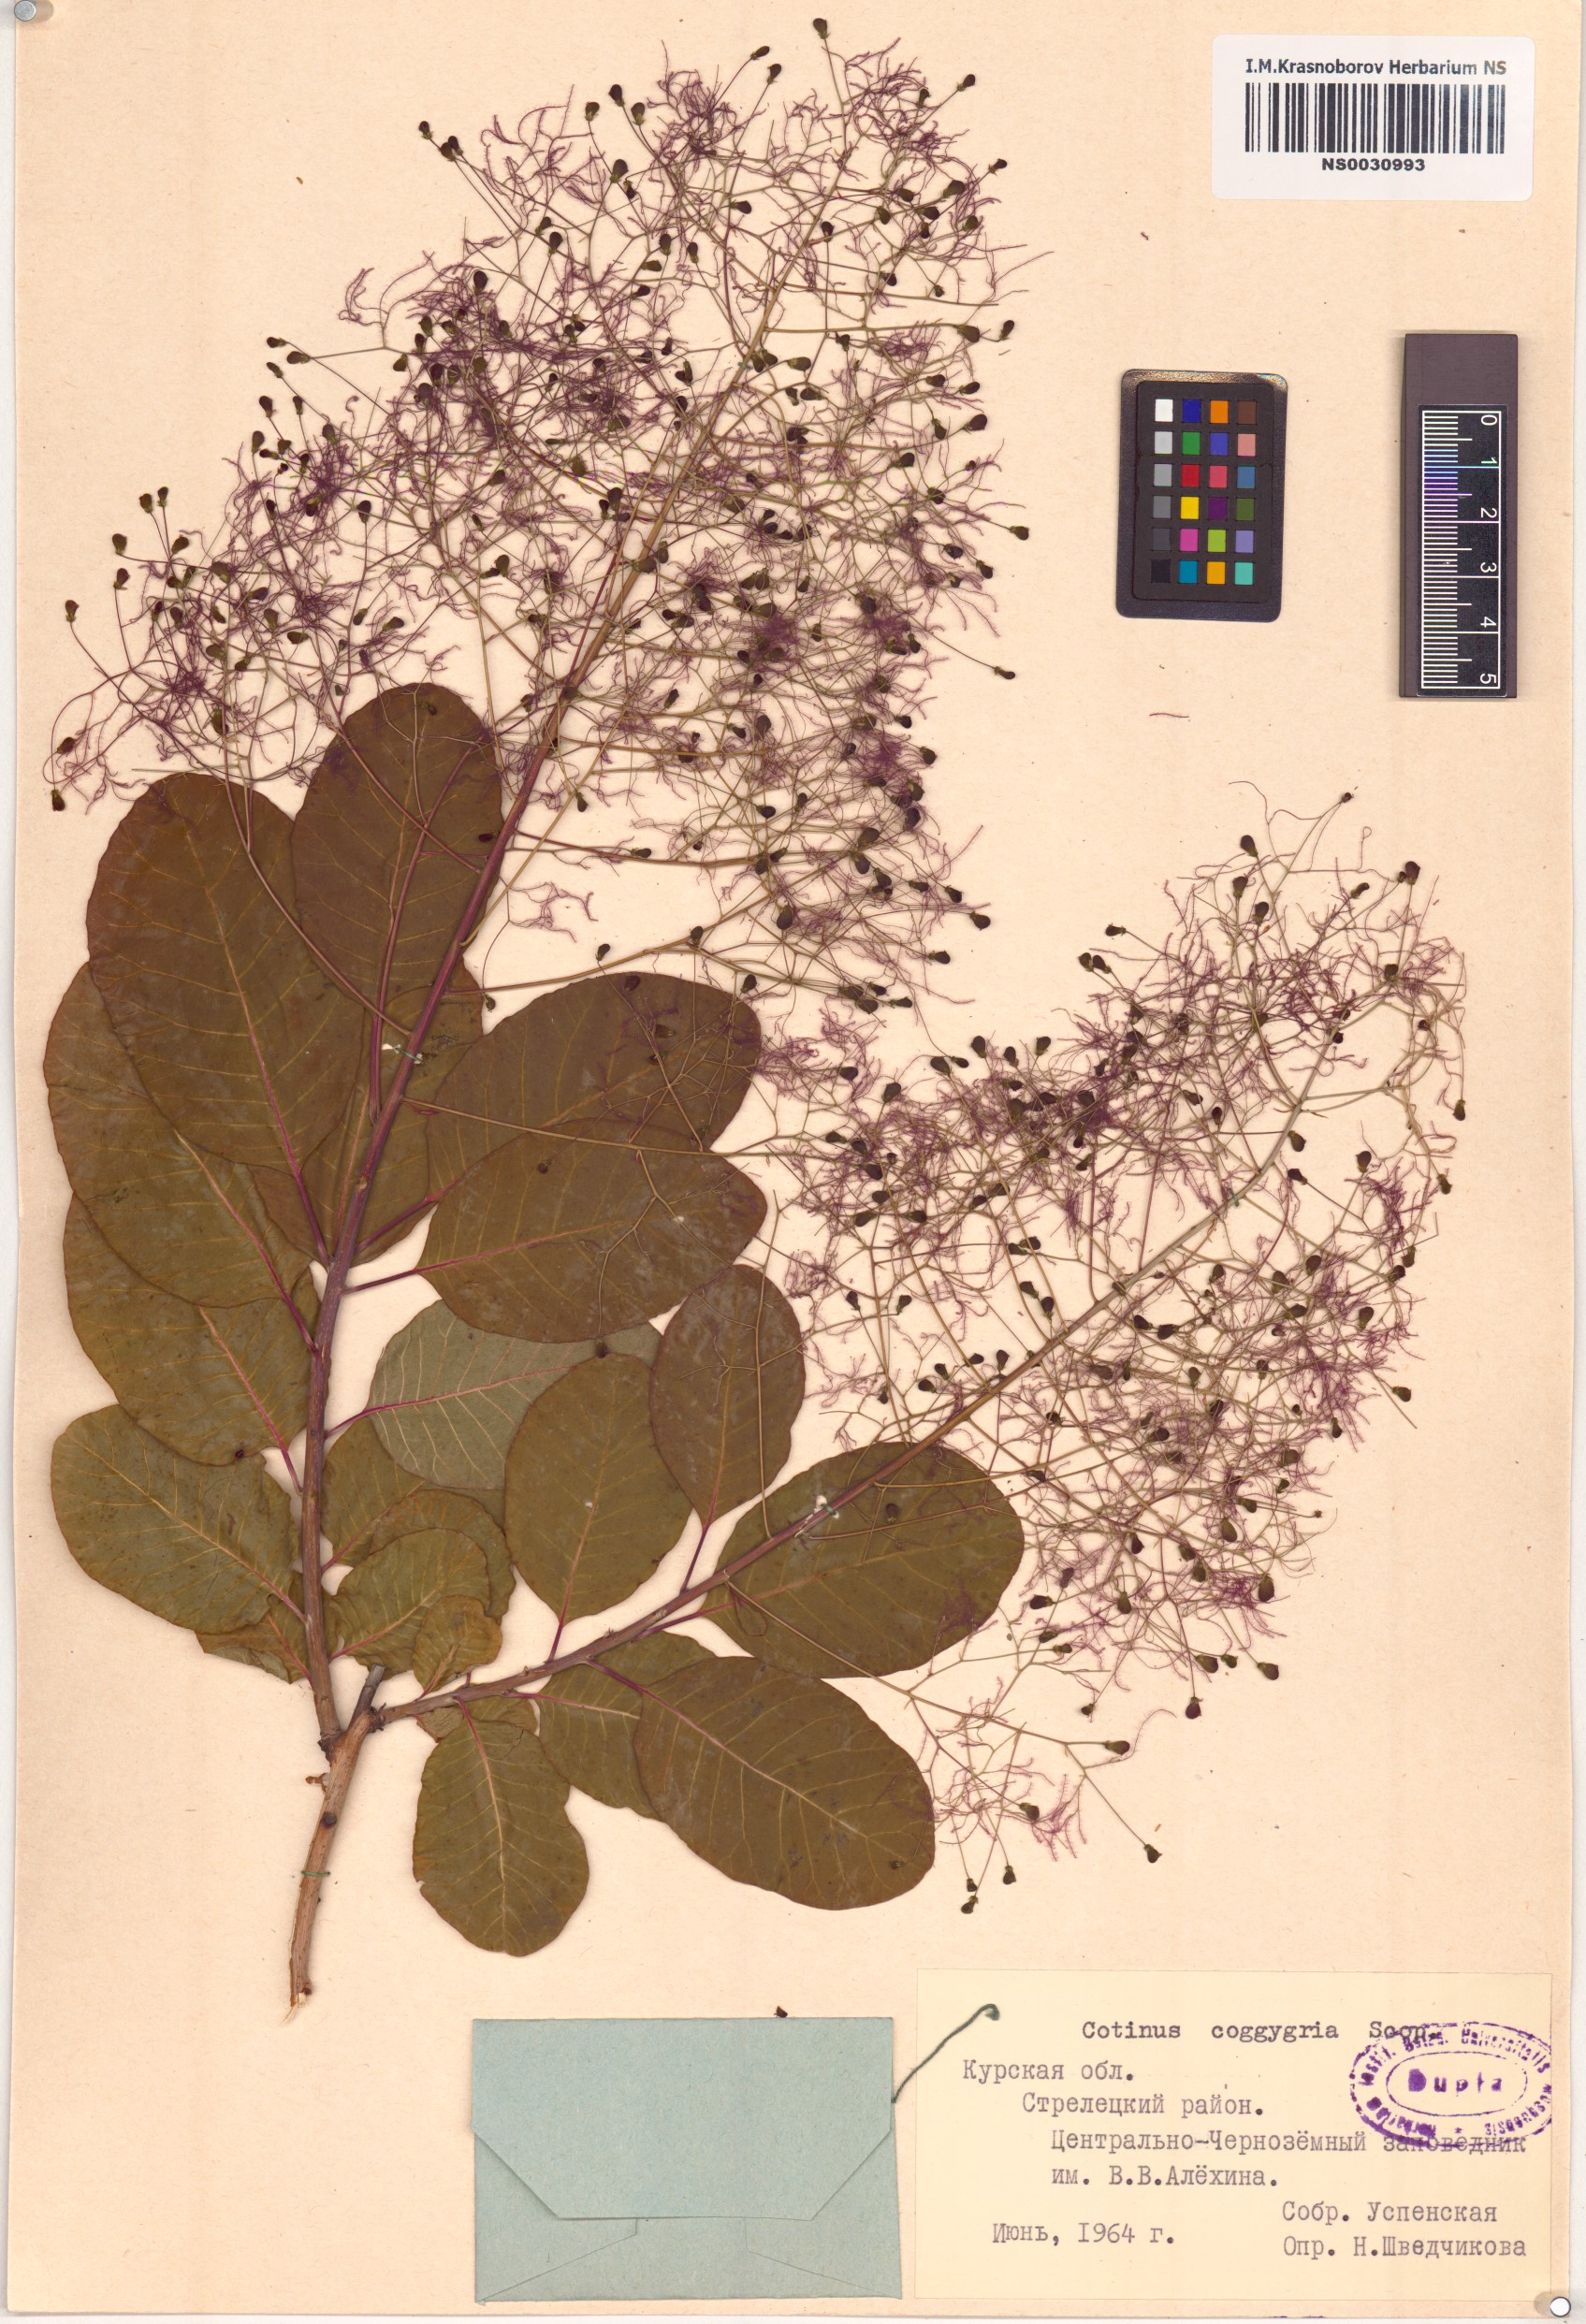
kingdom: Plantae
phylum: Tracheophyta
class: Magnoliopsida
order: Sapindales
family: Anacardiaceae
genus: Cotinus
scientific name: Cotinus coggygria
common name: Smoke-tree
